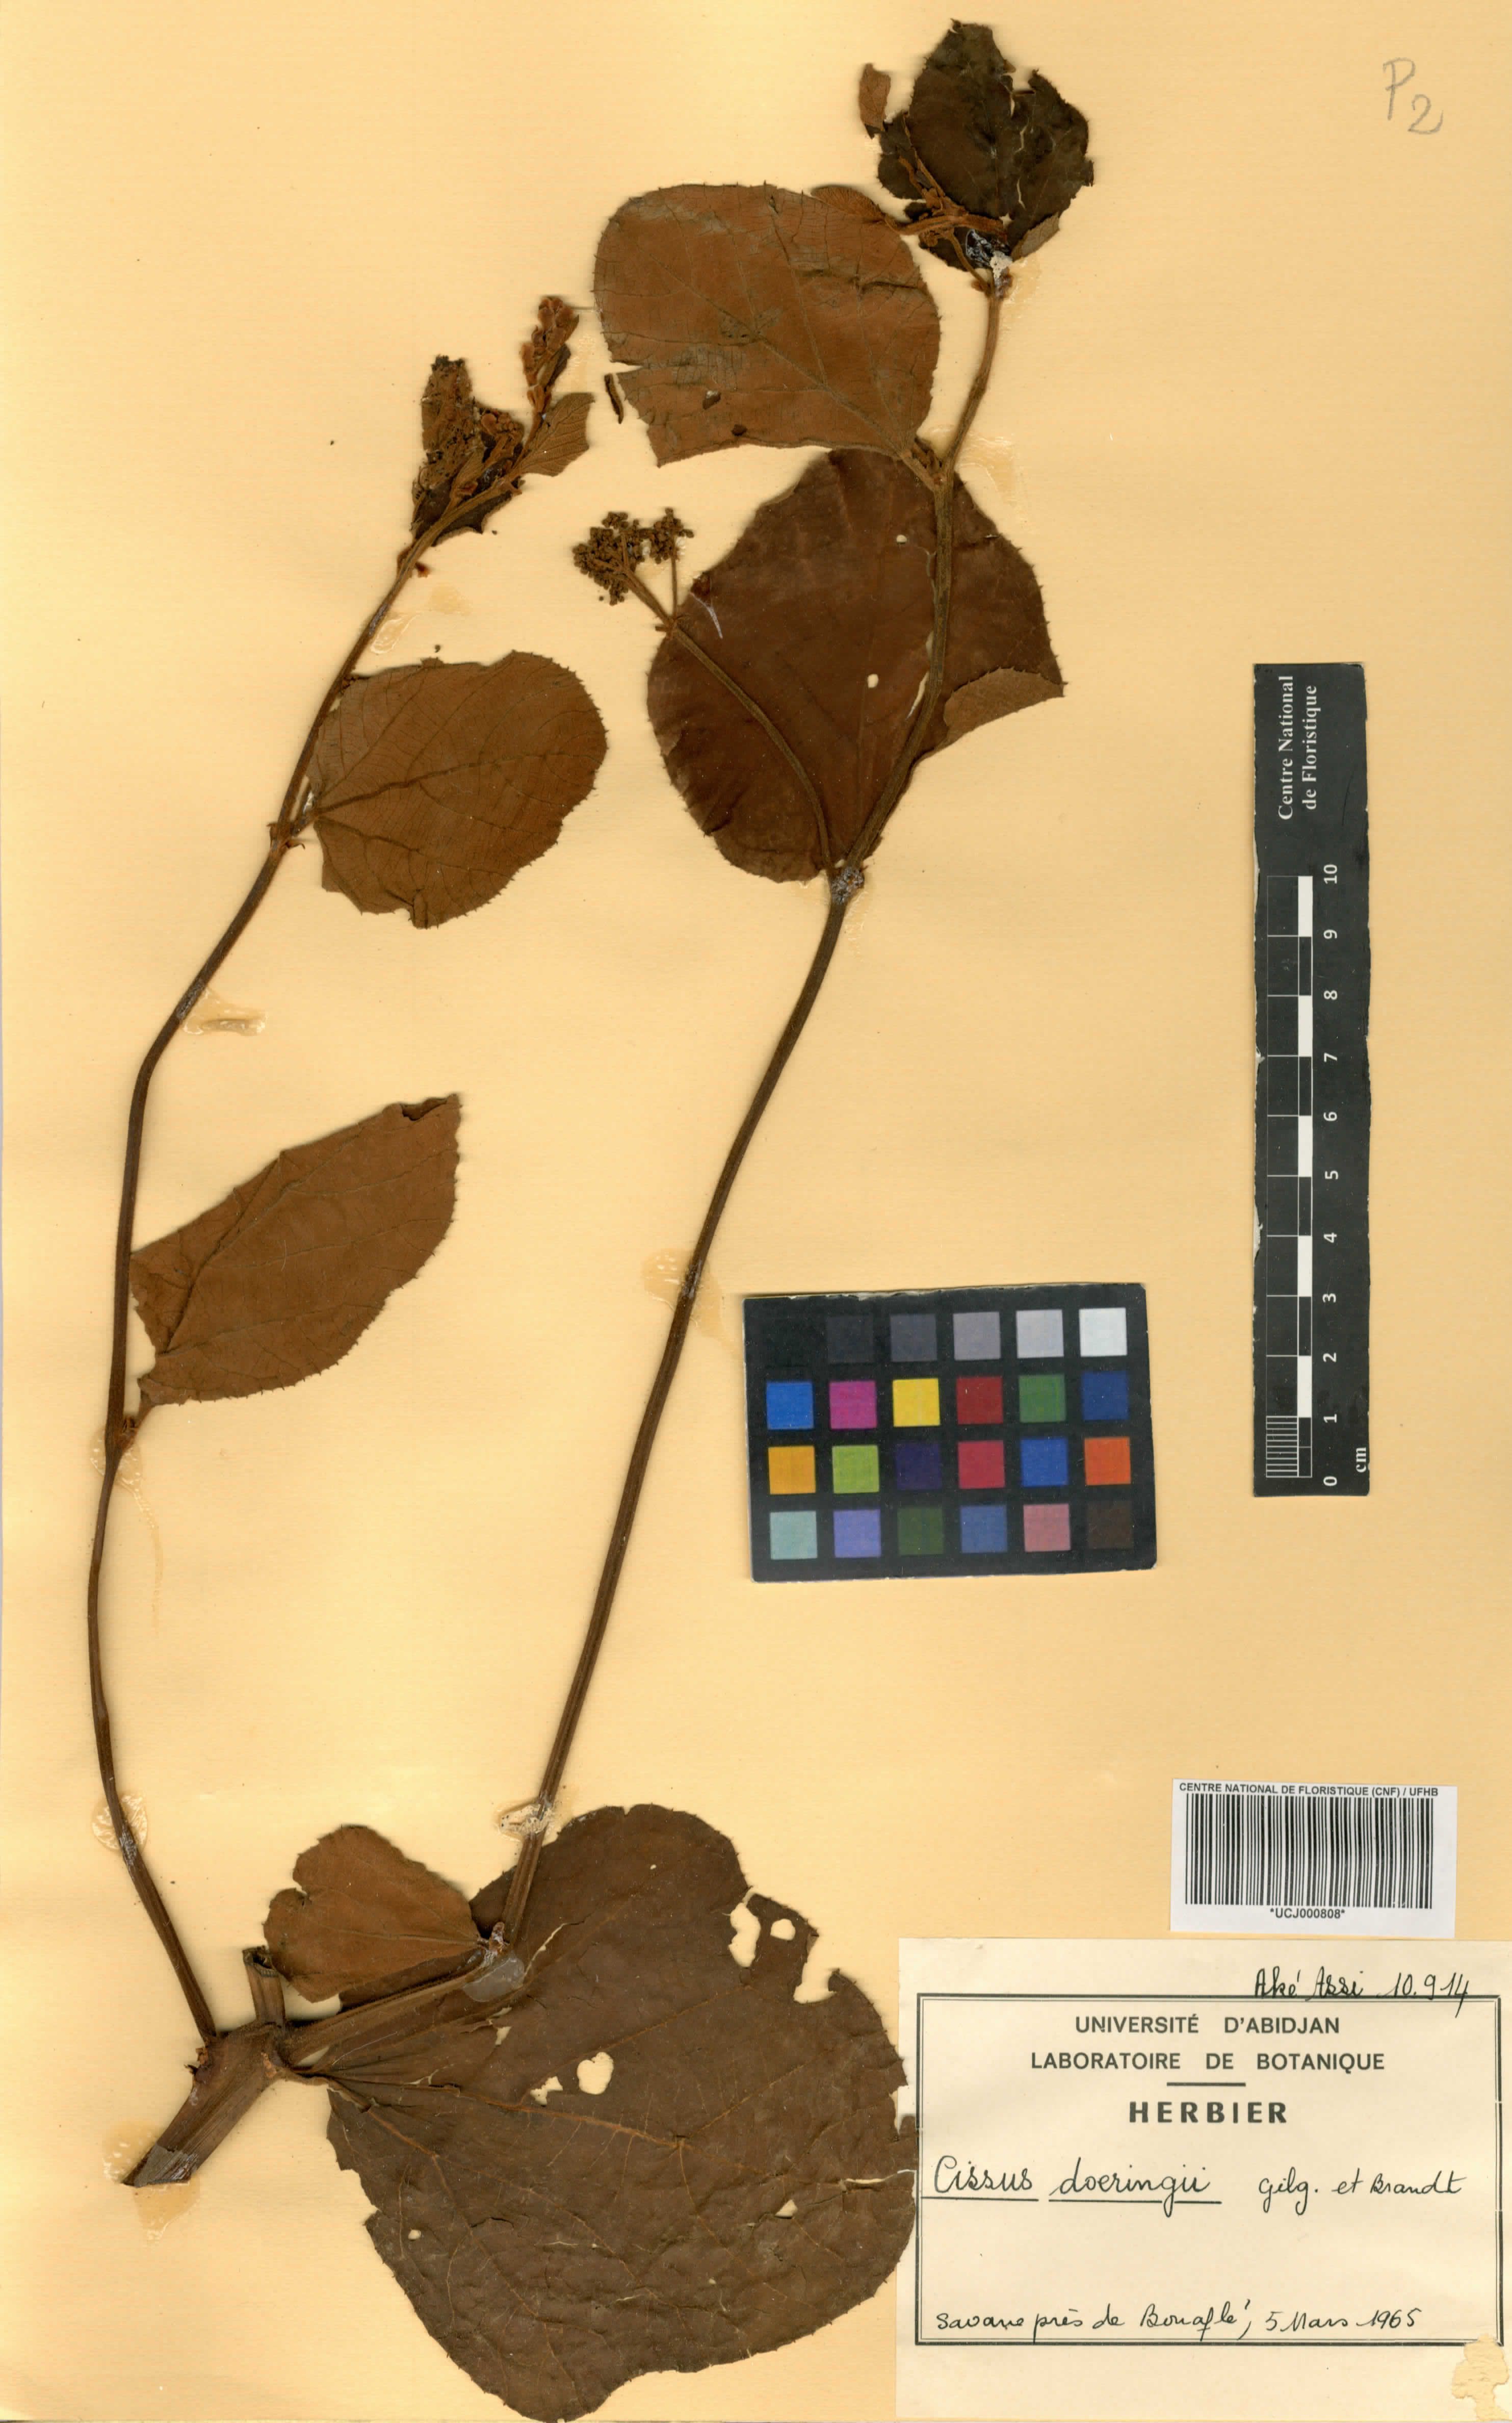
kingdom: Plantae
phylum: Tracheophyta
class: Magnoliopsida
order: Vitales
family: Vitaceae
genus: Cissus
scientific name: Cissus doeringii
